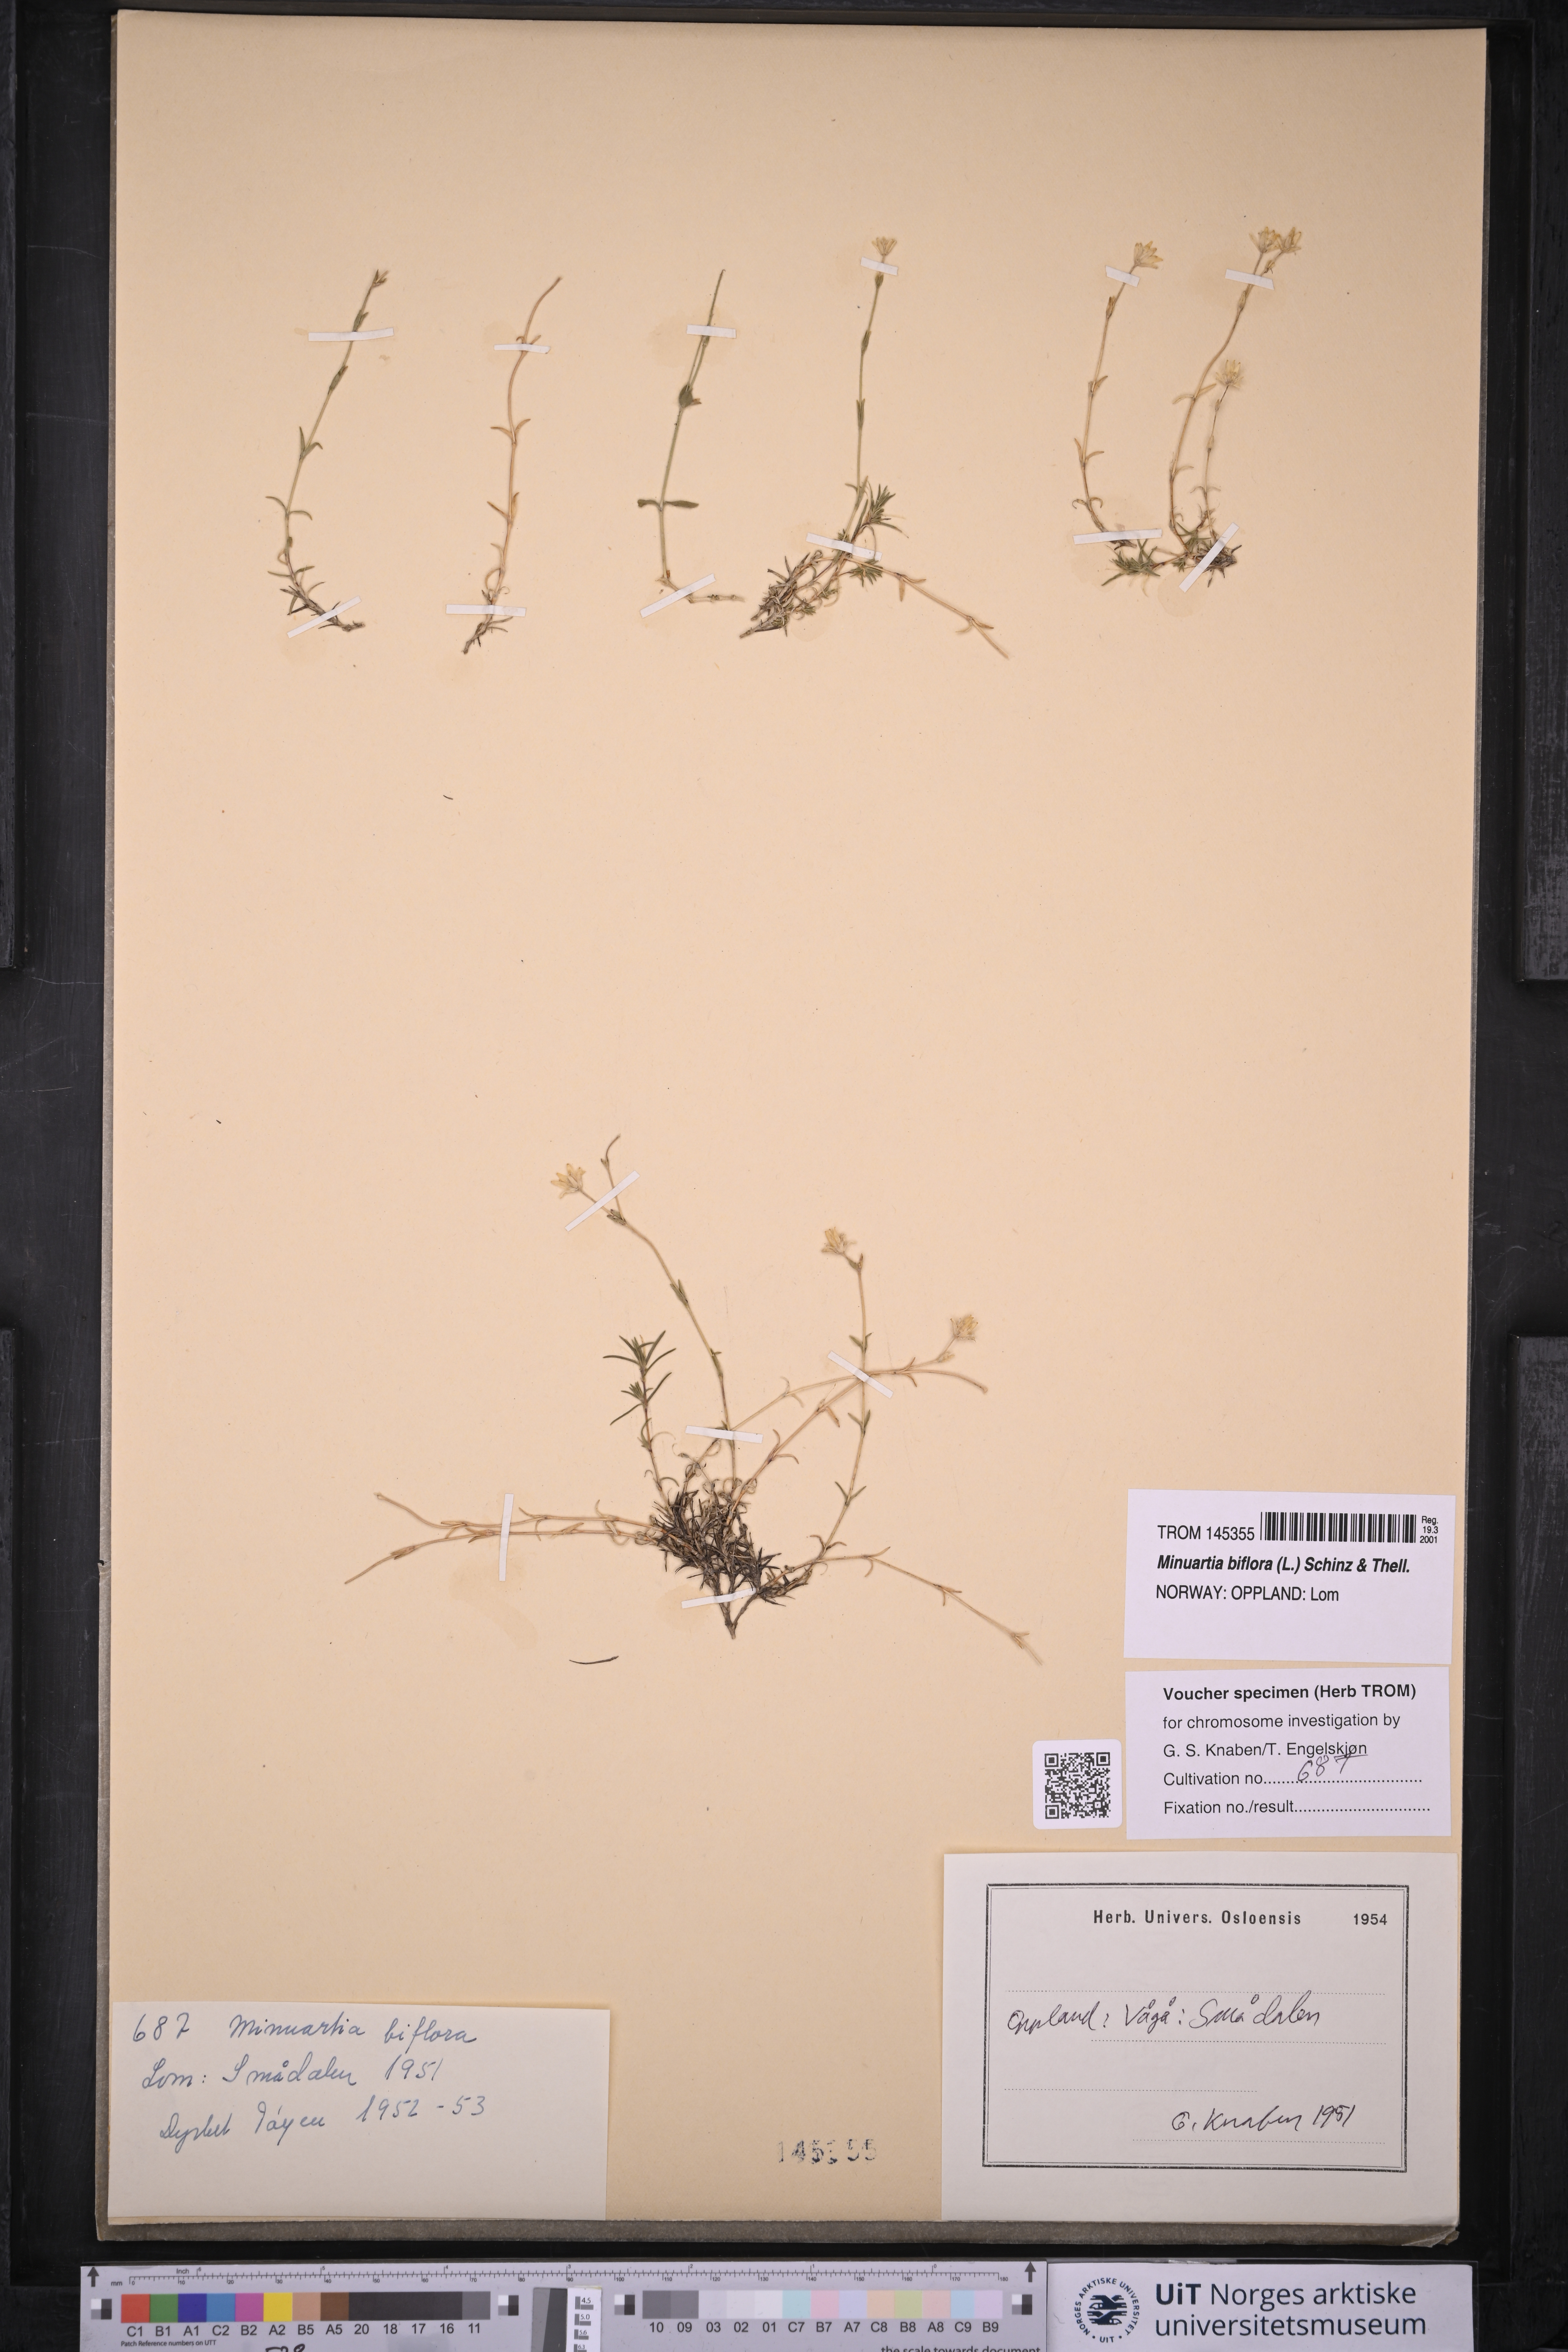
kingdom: Plantae
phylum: Tracheophyta
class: Magnoliopsida
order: Caryophyllales
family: Caryophyllaceae
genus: Cherleria
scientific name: Cherleria biflora
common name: Mountain sandwort
